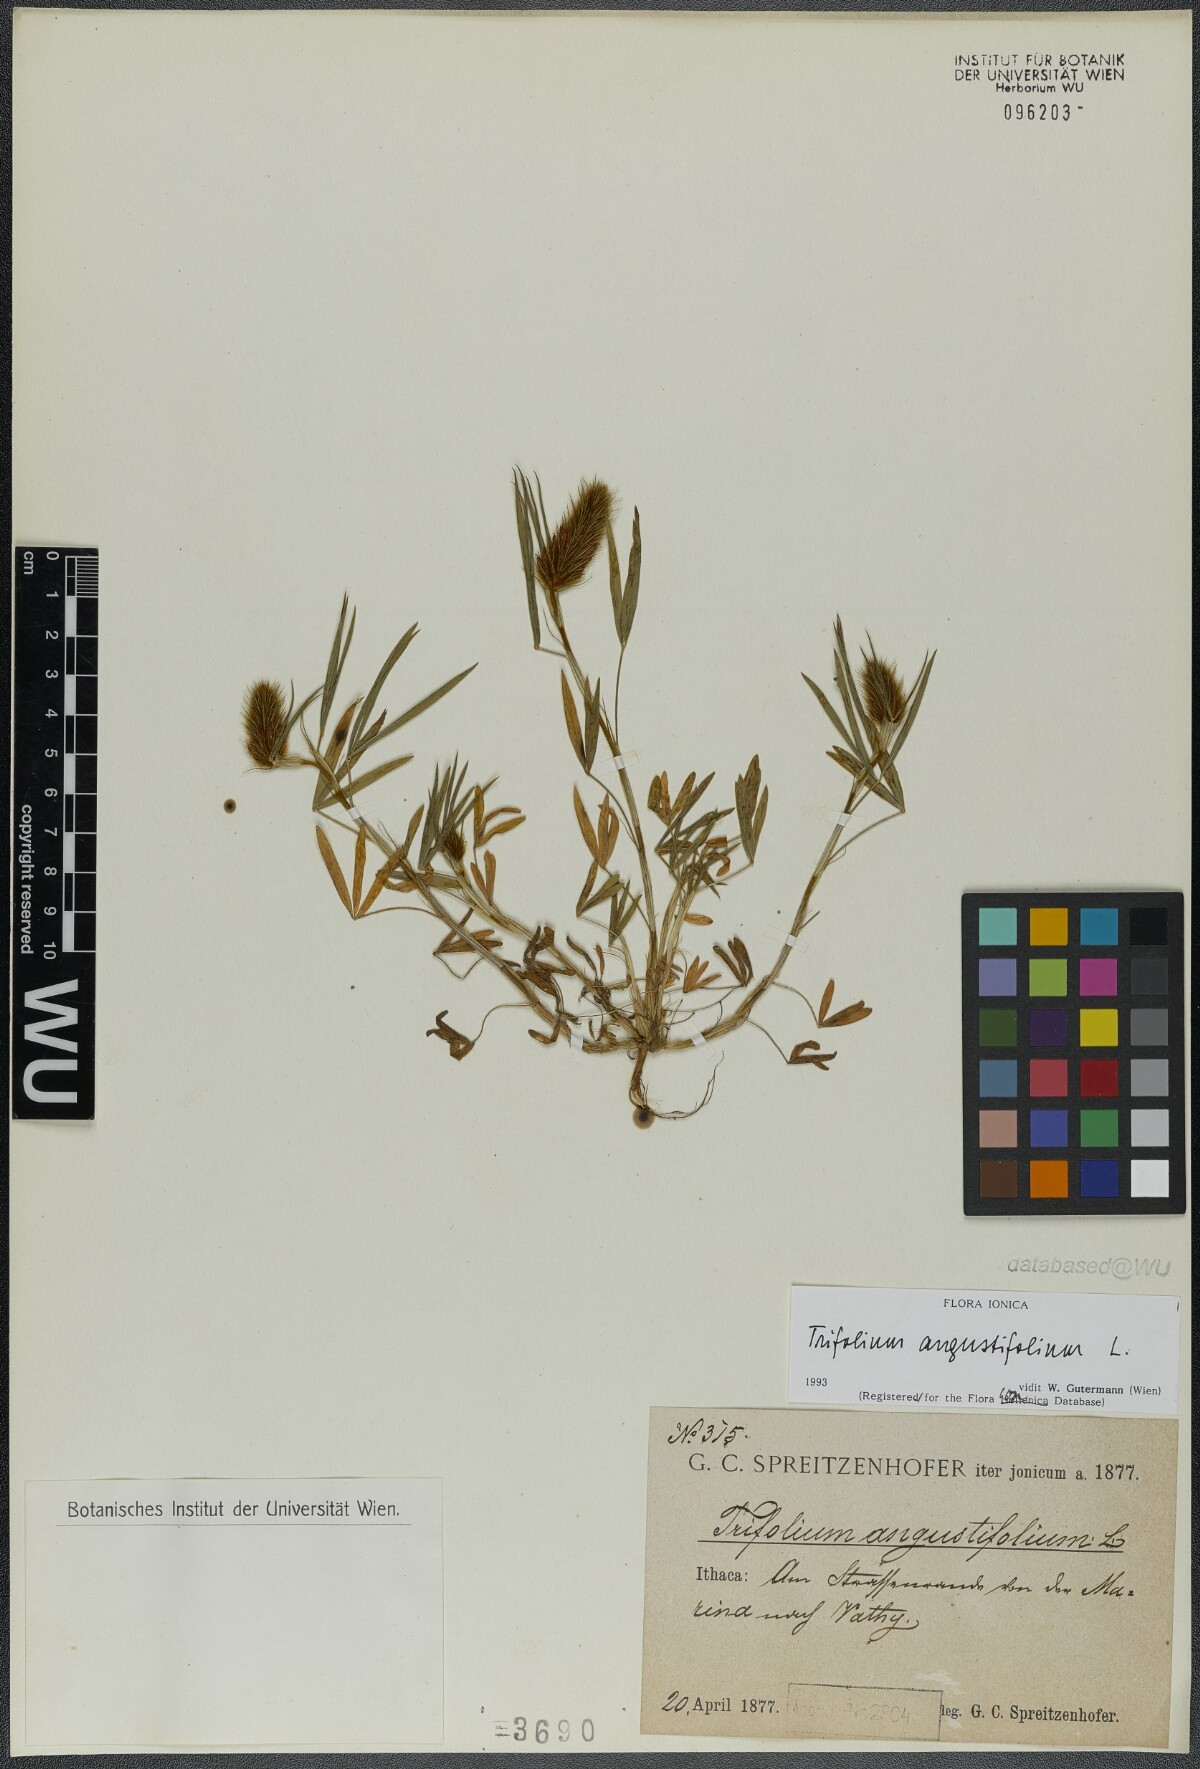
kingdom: Plantae
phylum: Tracheophyta
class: Magnoliopsida
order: Fabales
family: Fabaceae
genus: Trifolium
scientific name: Trifolium angustifolium
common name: Narrow clover
